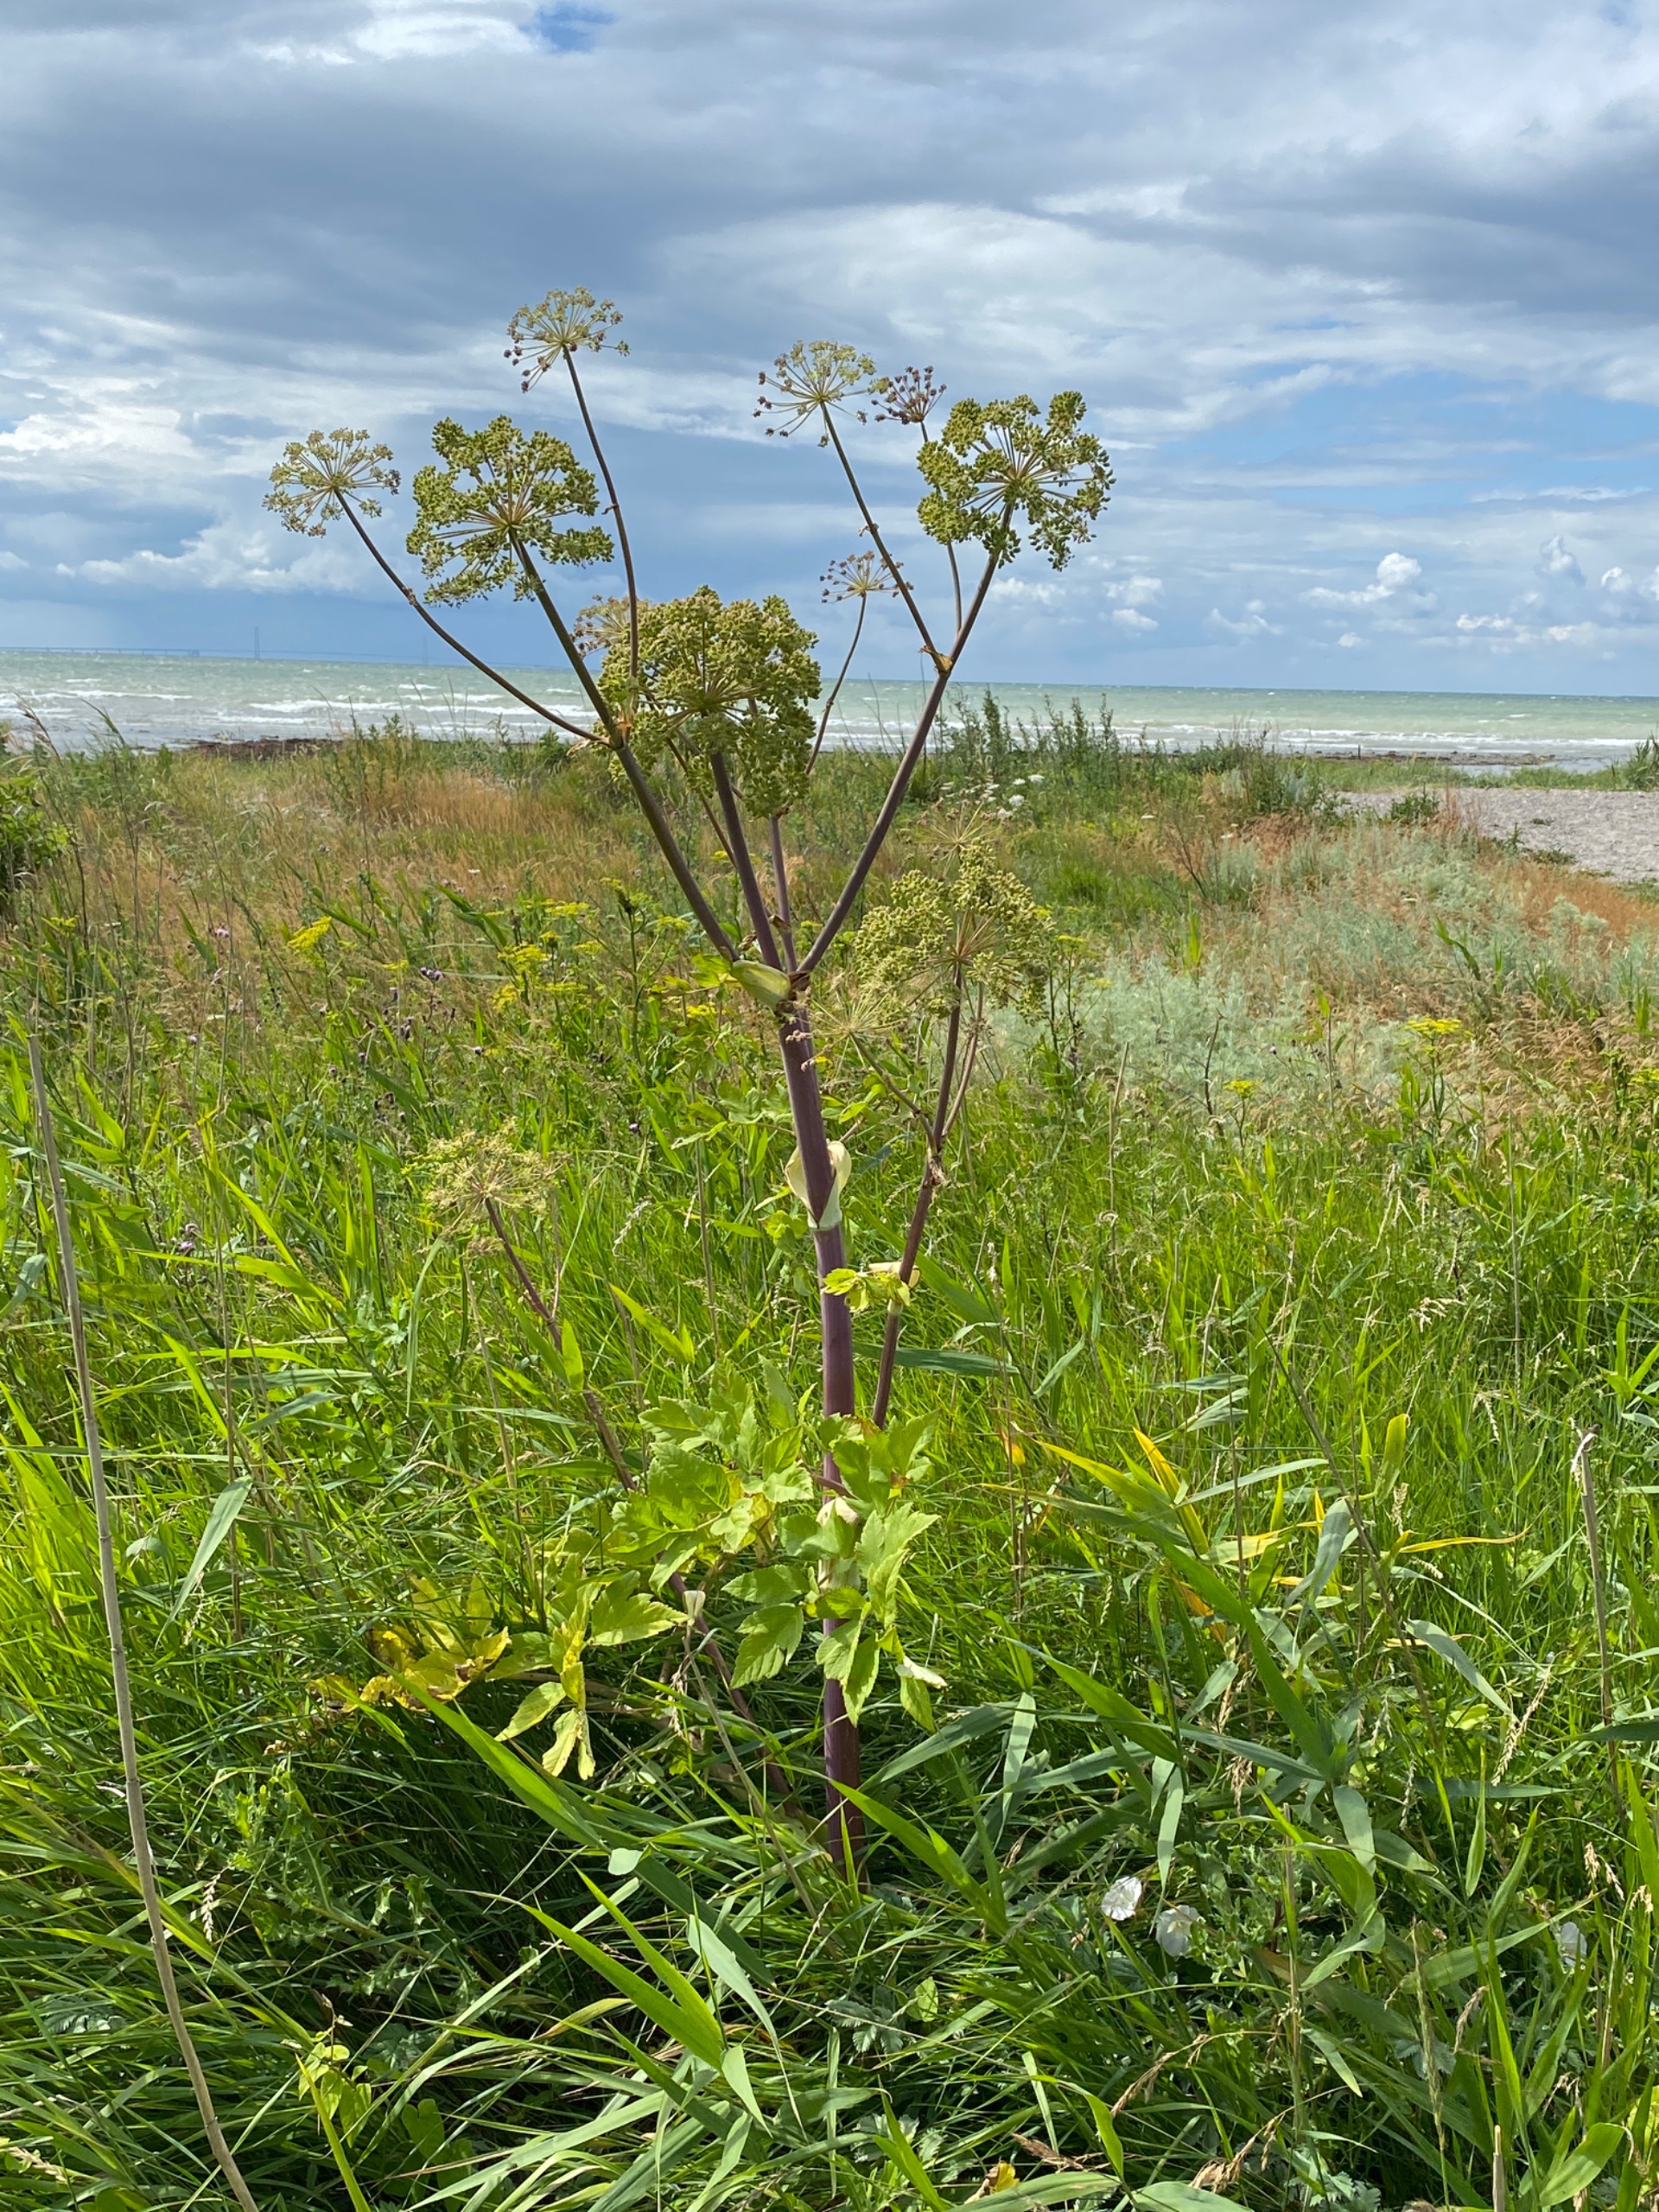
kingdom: Plantae
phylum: Tracheophyta
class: Magnoliopsida
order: Apiales
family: Apiaceae
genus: Angelica
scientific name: Angelica archangelica
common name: Kvan
